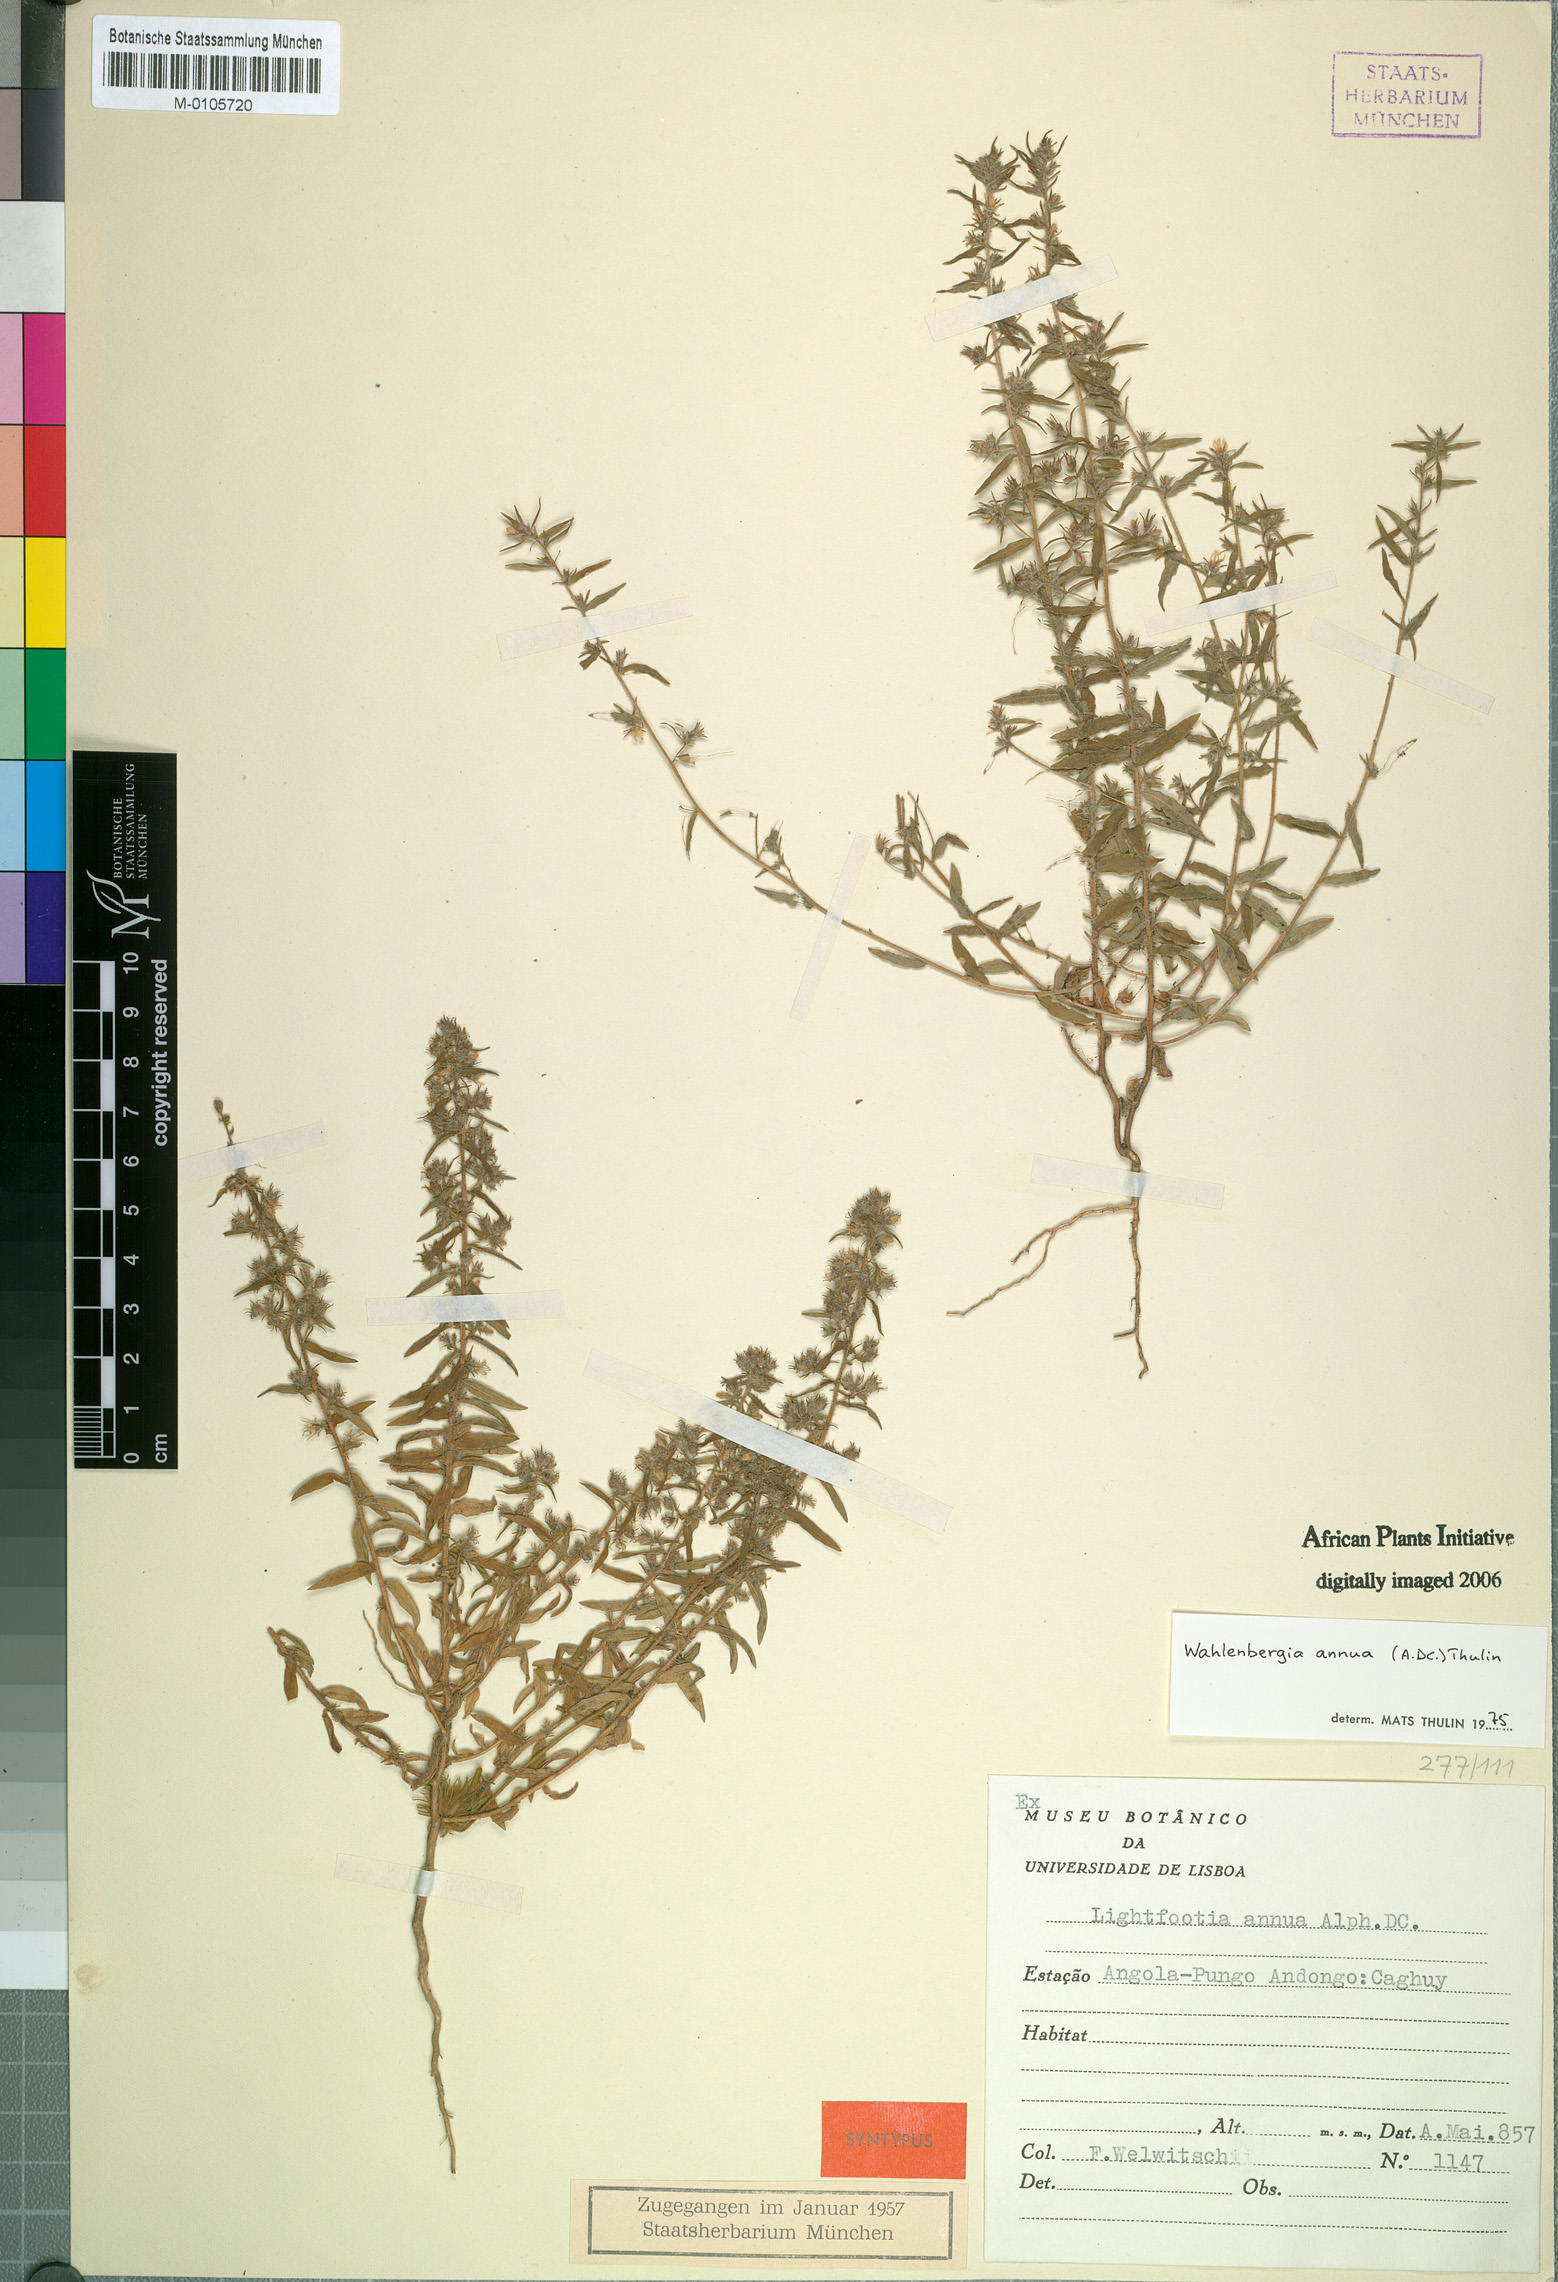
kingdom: Plantae
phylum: Tracheophyta
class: Magnoliopsida
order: Asterales
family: Campanulaceae
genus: Wahlenbergia
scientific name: Wahlenbergia annua
